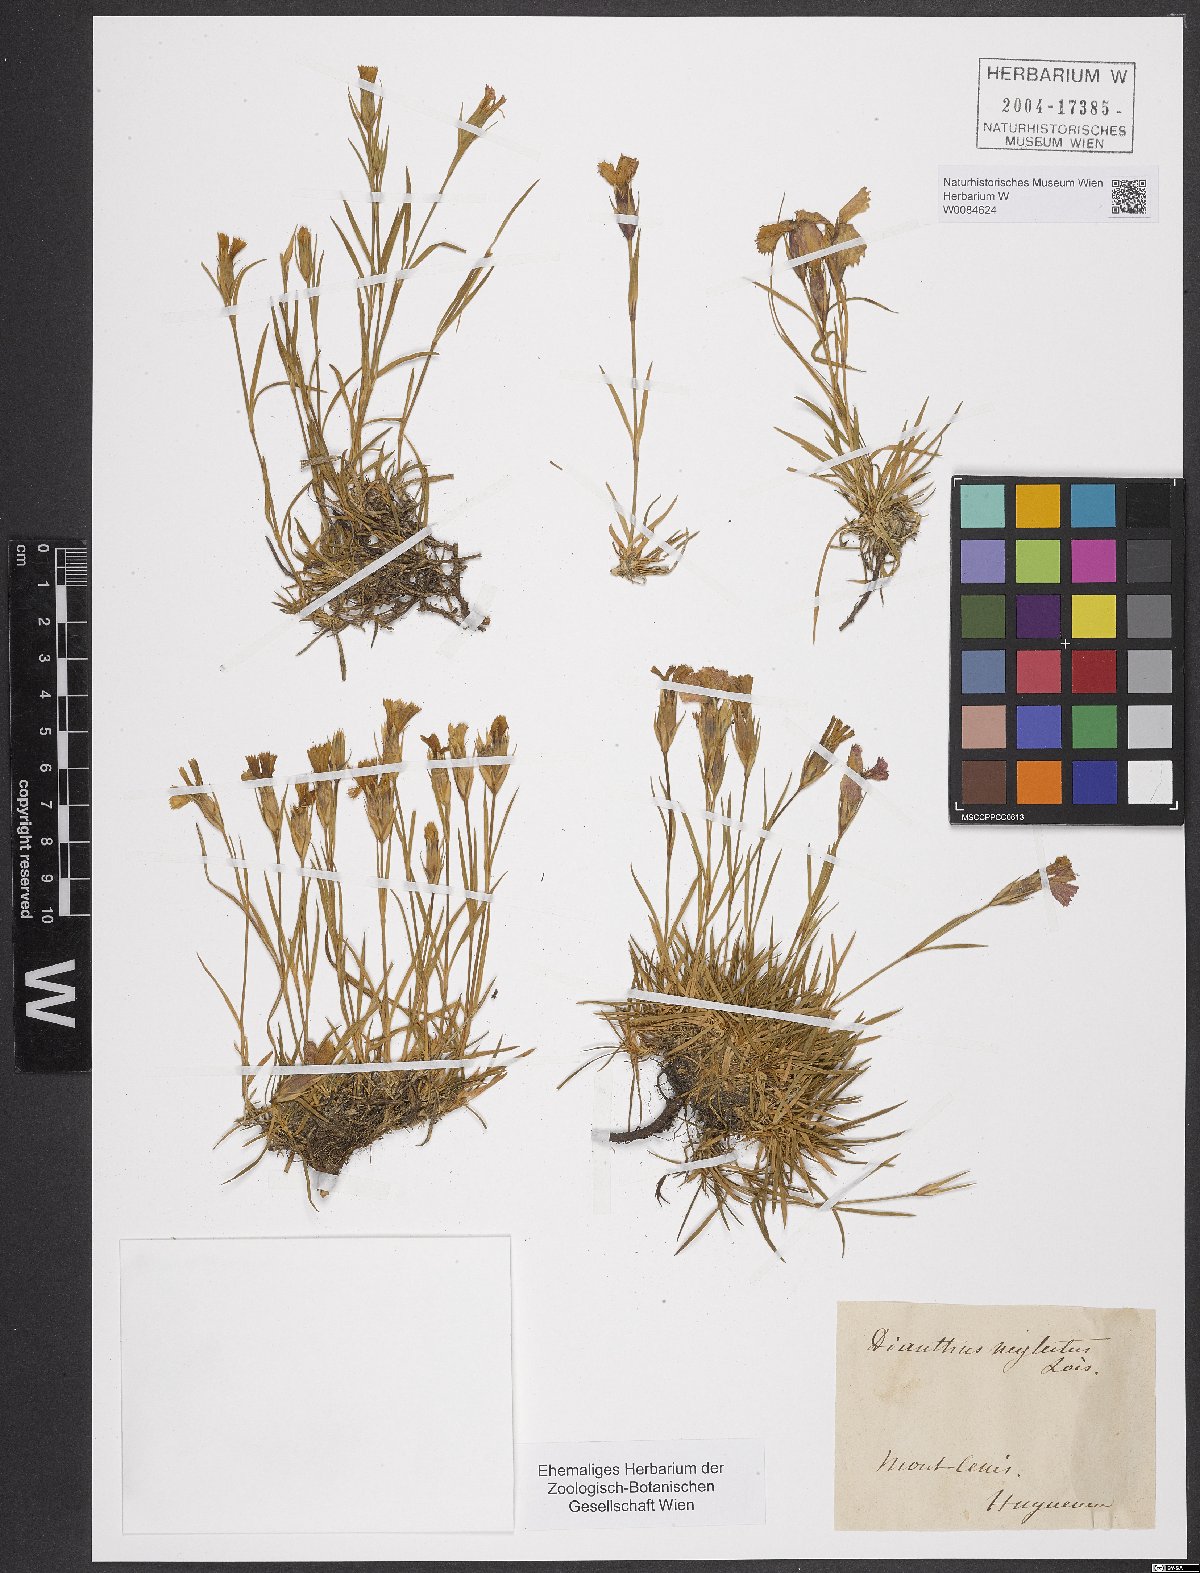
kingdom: Plantae
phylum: Tracheophyta
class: Magnoliopsida
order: Caryophyllales
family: Caryophyllaceae
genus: Dianthus
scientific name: Dianthus seguieri
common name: Ragged pink
